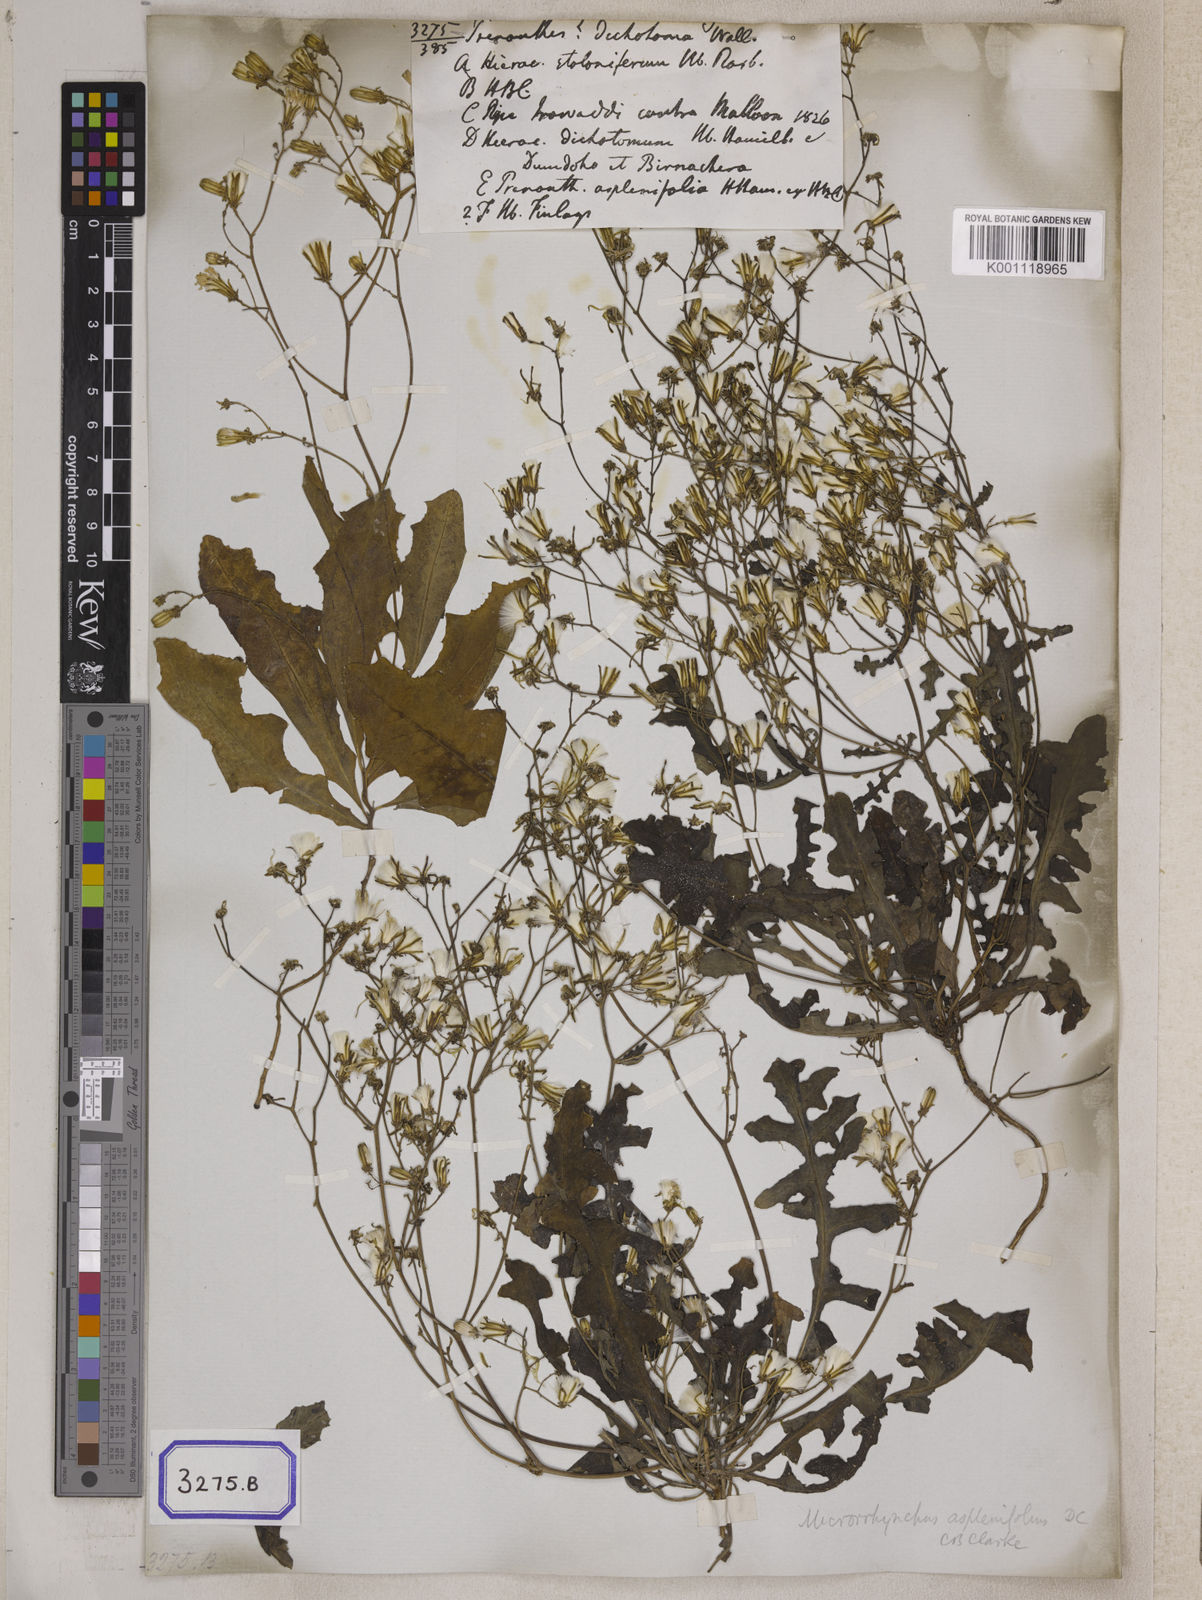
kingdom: Plantae
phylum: Tracheophyta
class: Magnoliopsida
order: Asterales
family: Asteraceae
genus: Launaea
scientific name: Launaea aspleniifolia
